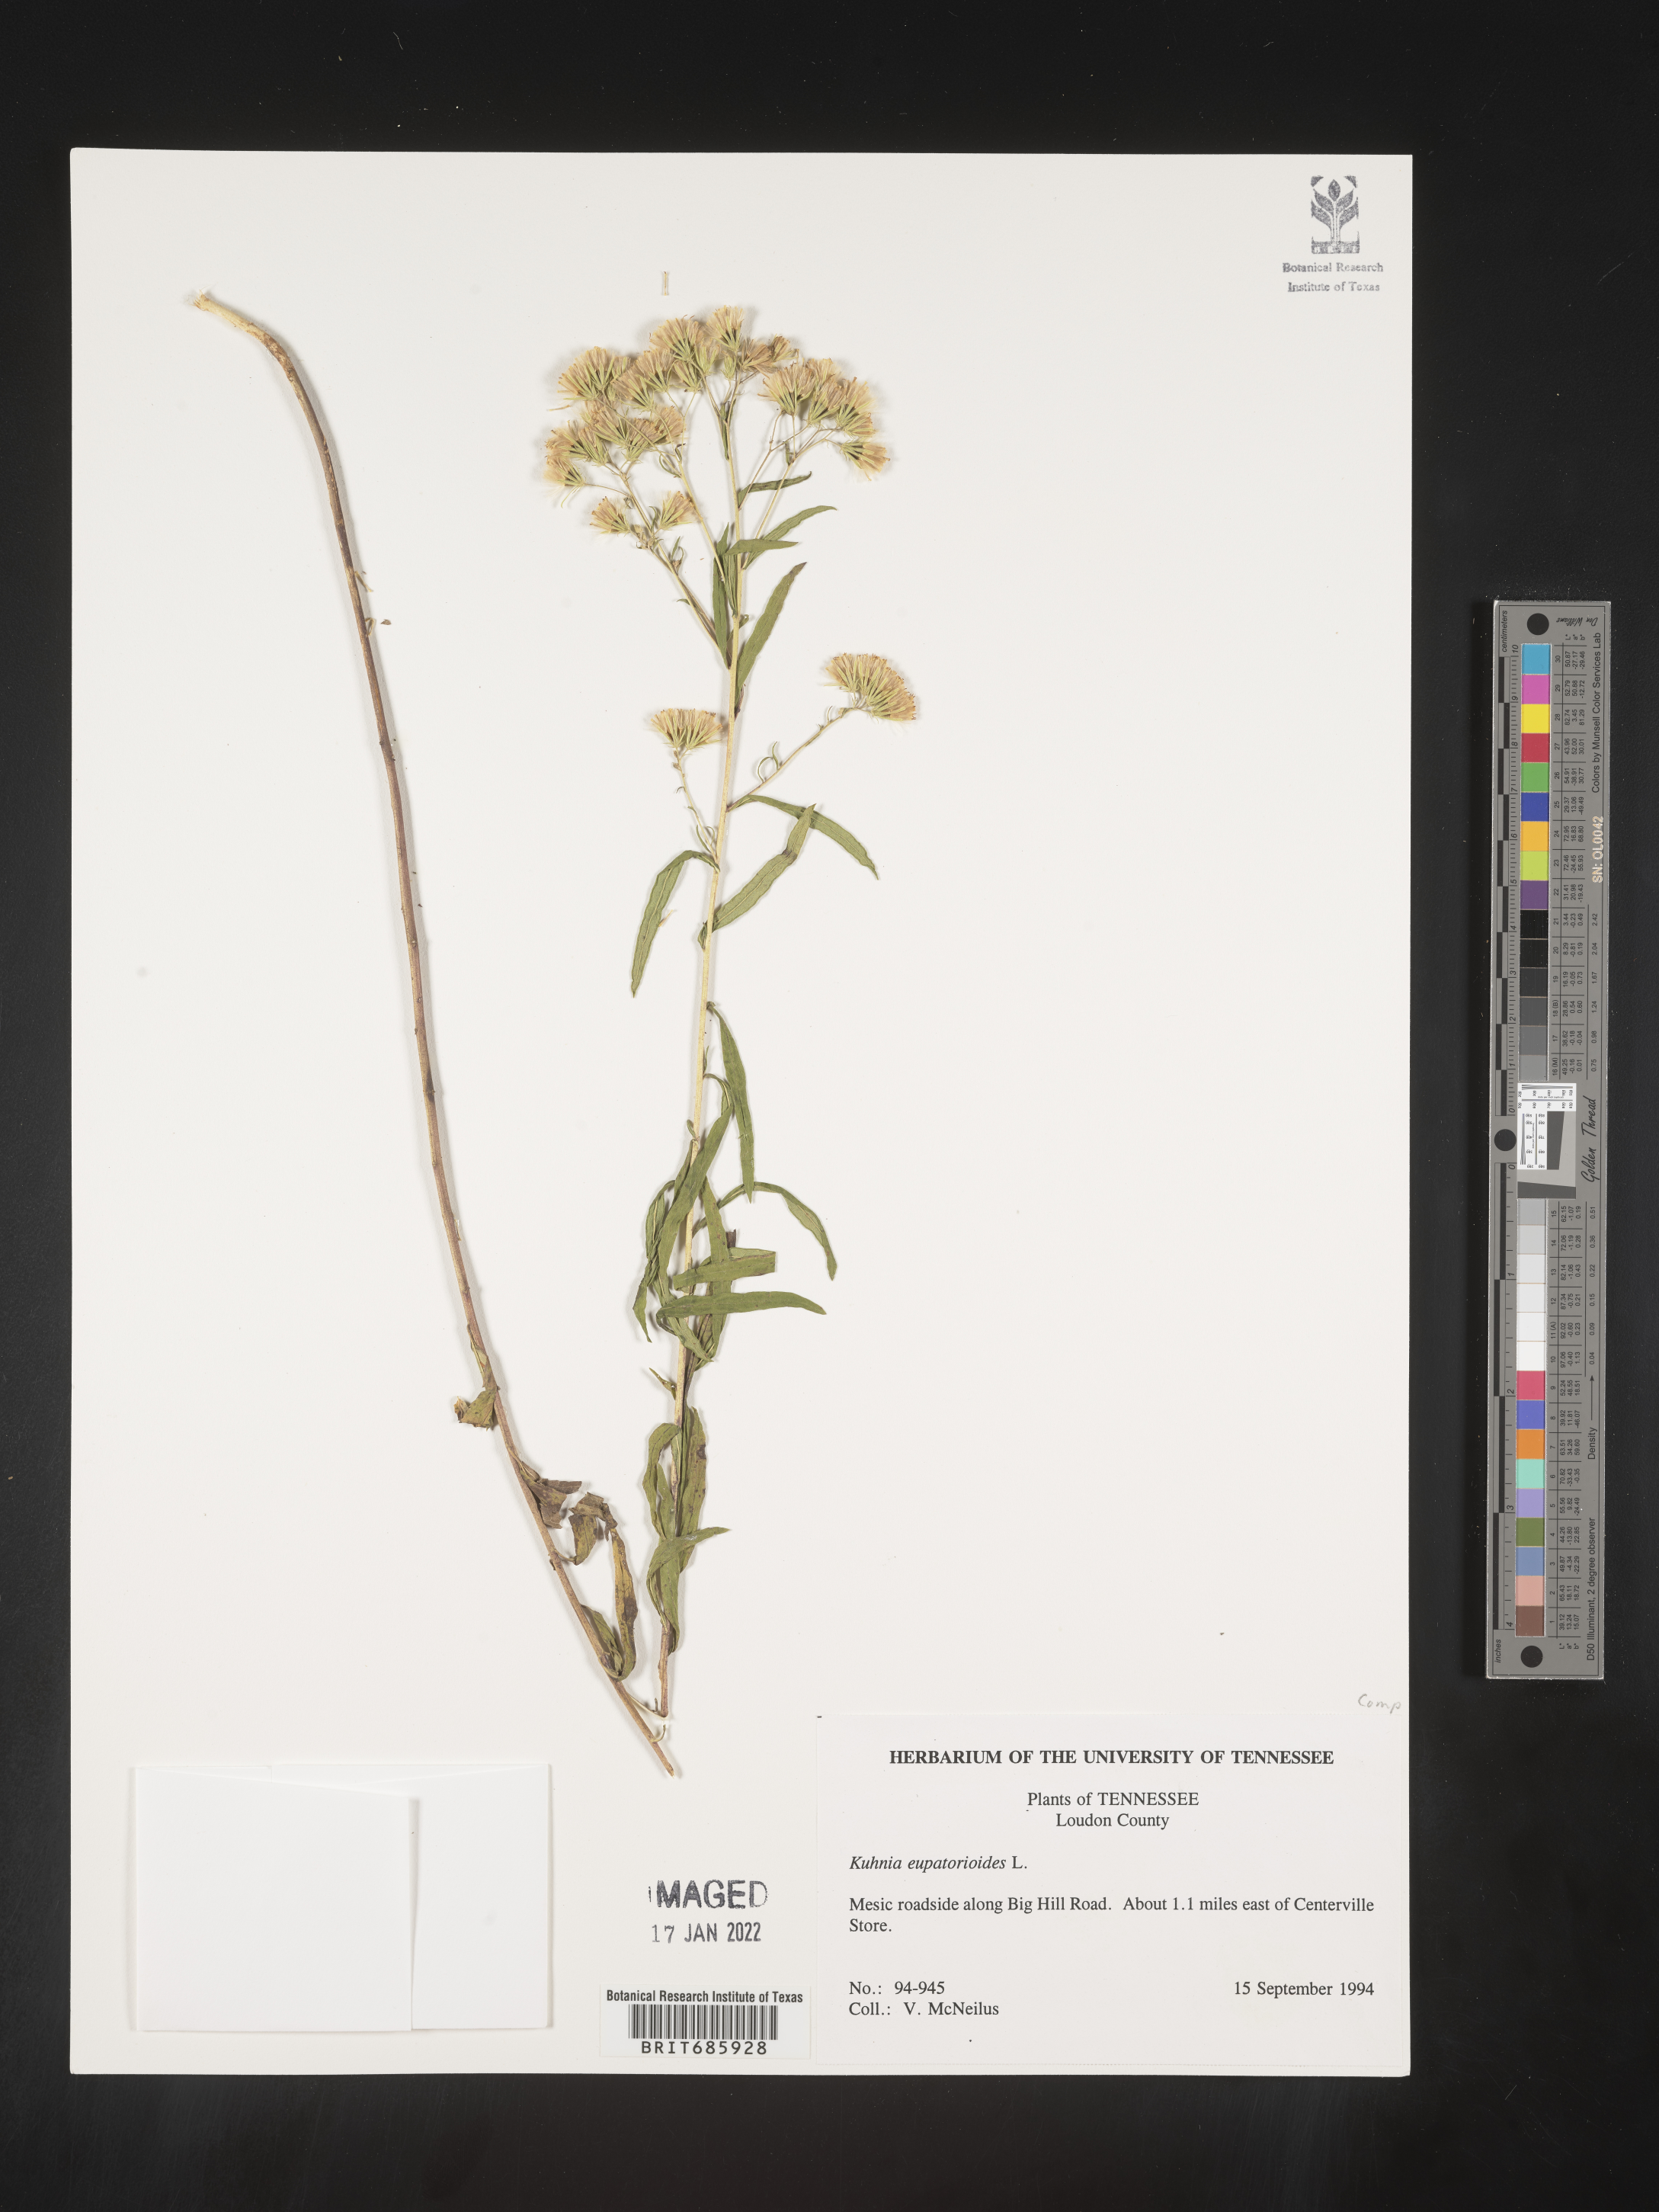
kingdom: Plantae
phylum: Tracheophyta
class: Magnoliopsida
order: Asterales
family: Asteraceae
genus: Brickellia
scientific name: Brickellia eupatorioides
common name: False boneset
